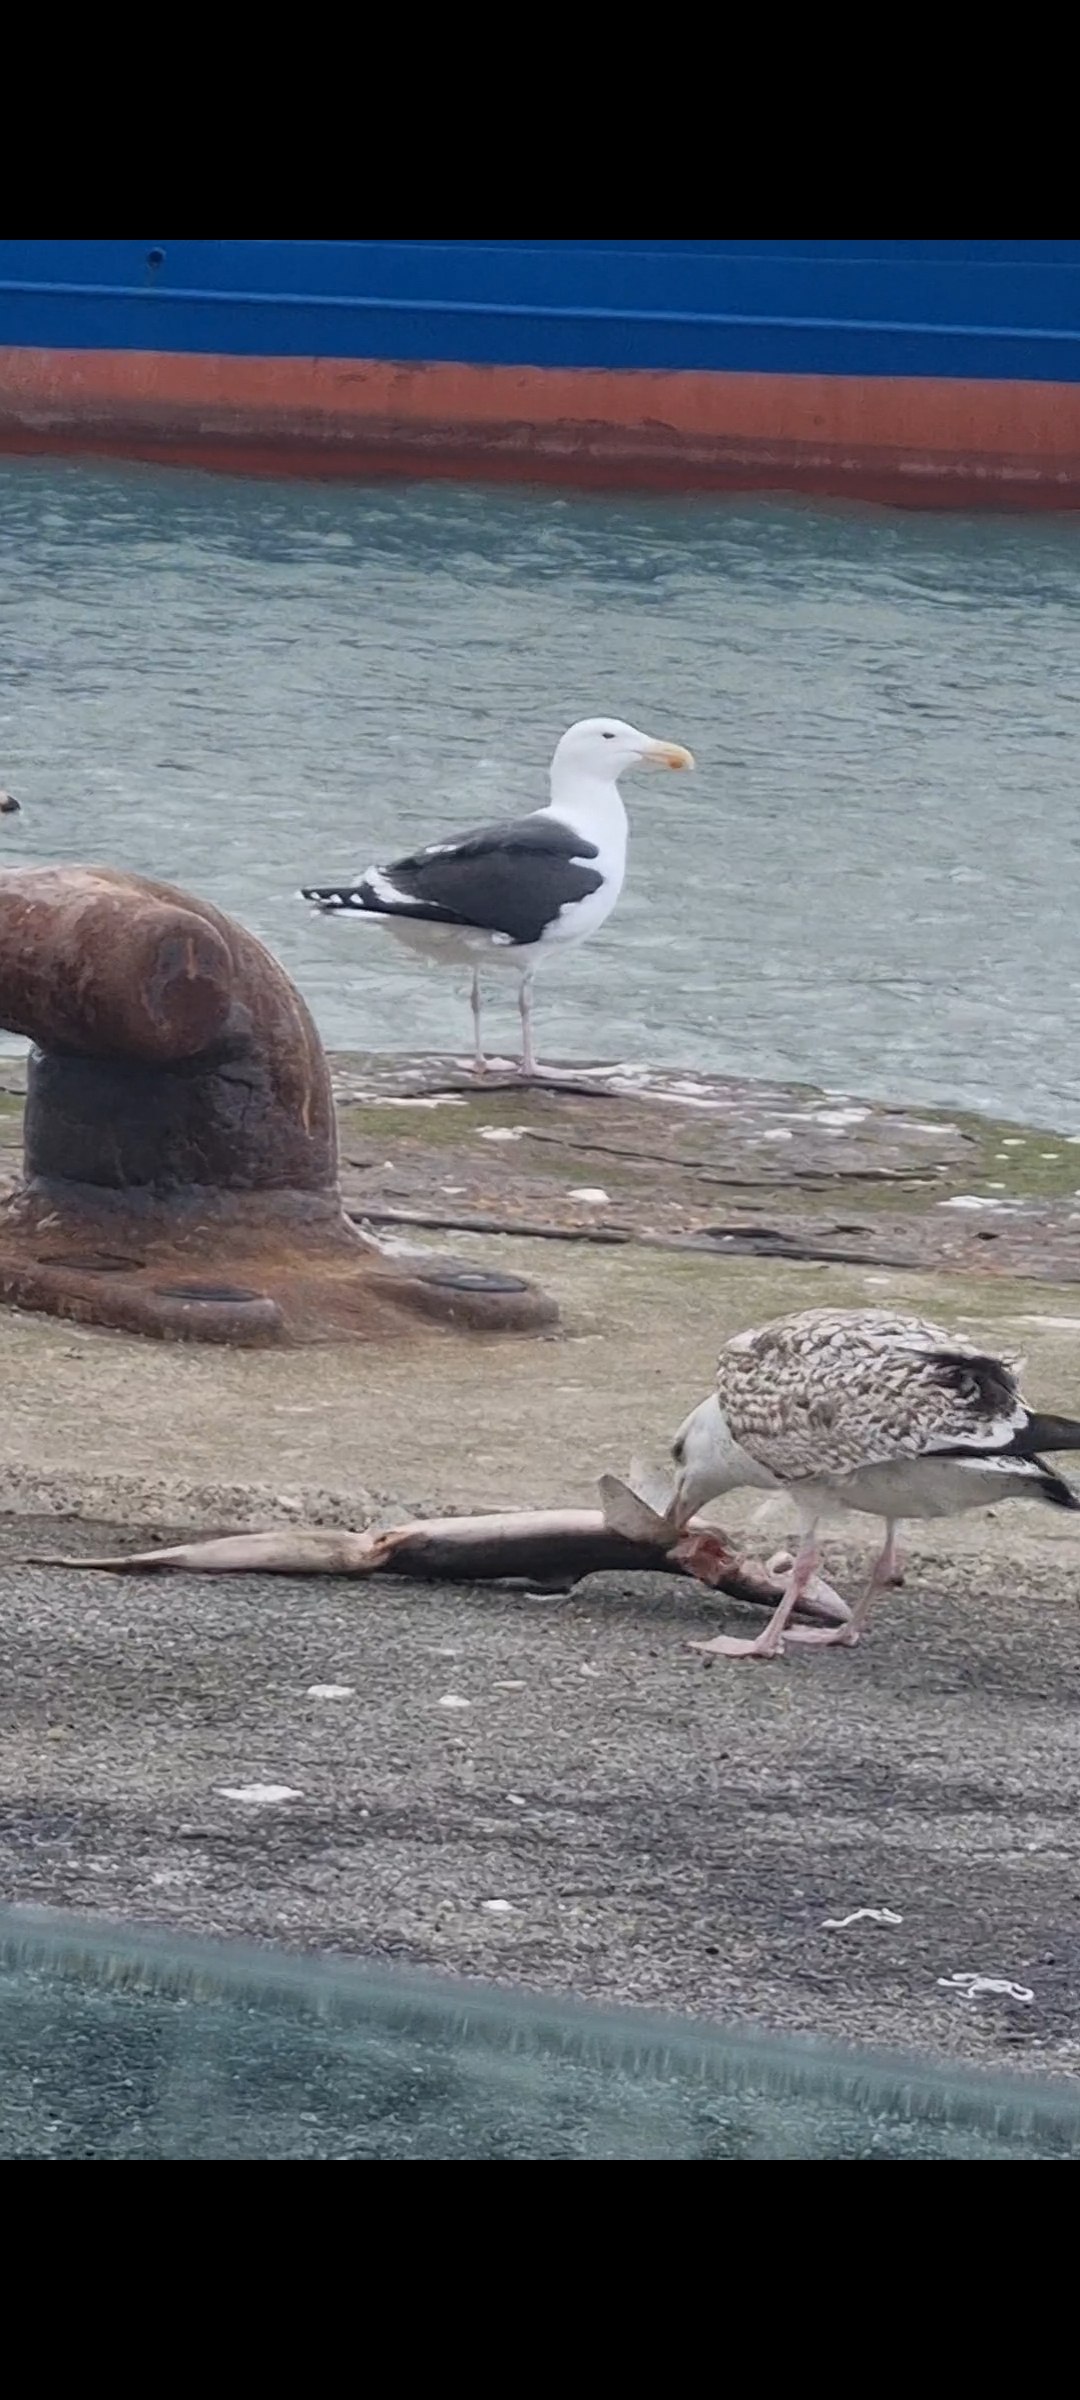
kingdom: Animalia
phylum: Chordata
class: Elasmobranchii
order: Squaliformes
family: Squalidae
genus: Squalus
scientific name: Squalus acanthias
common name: Pighaj
